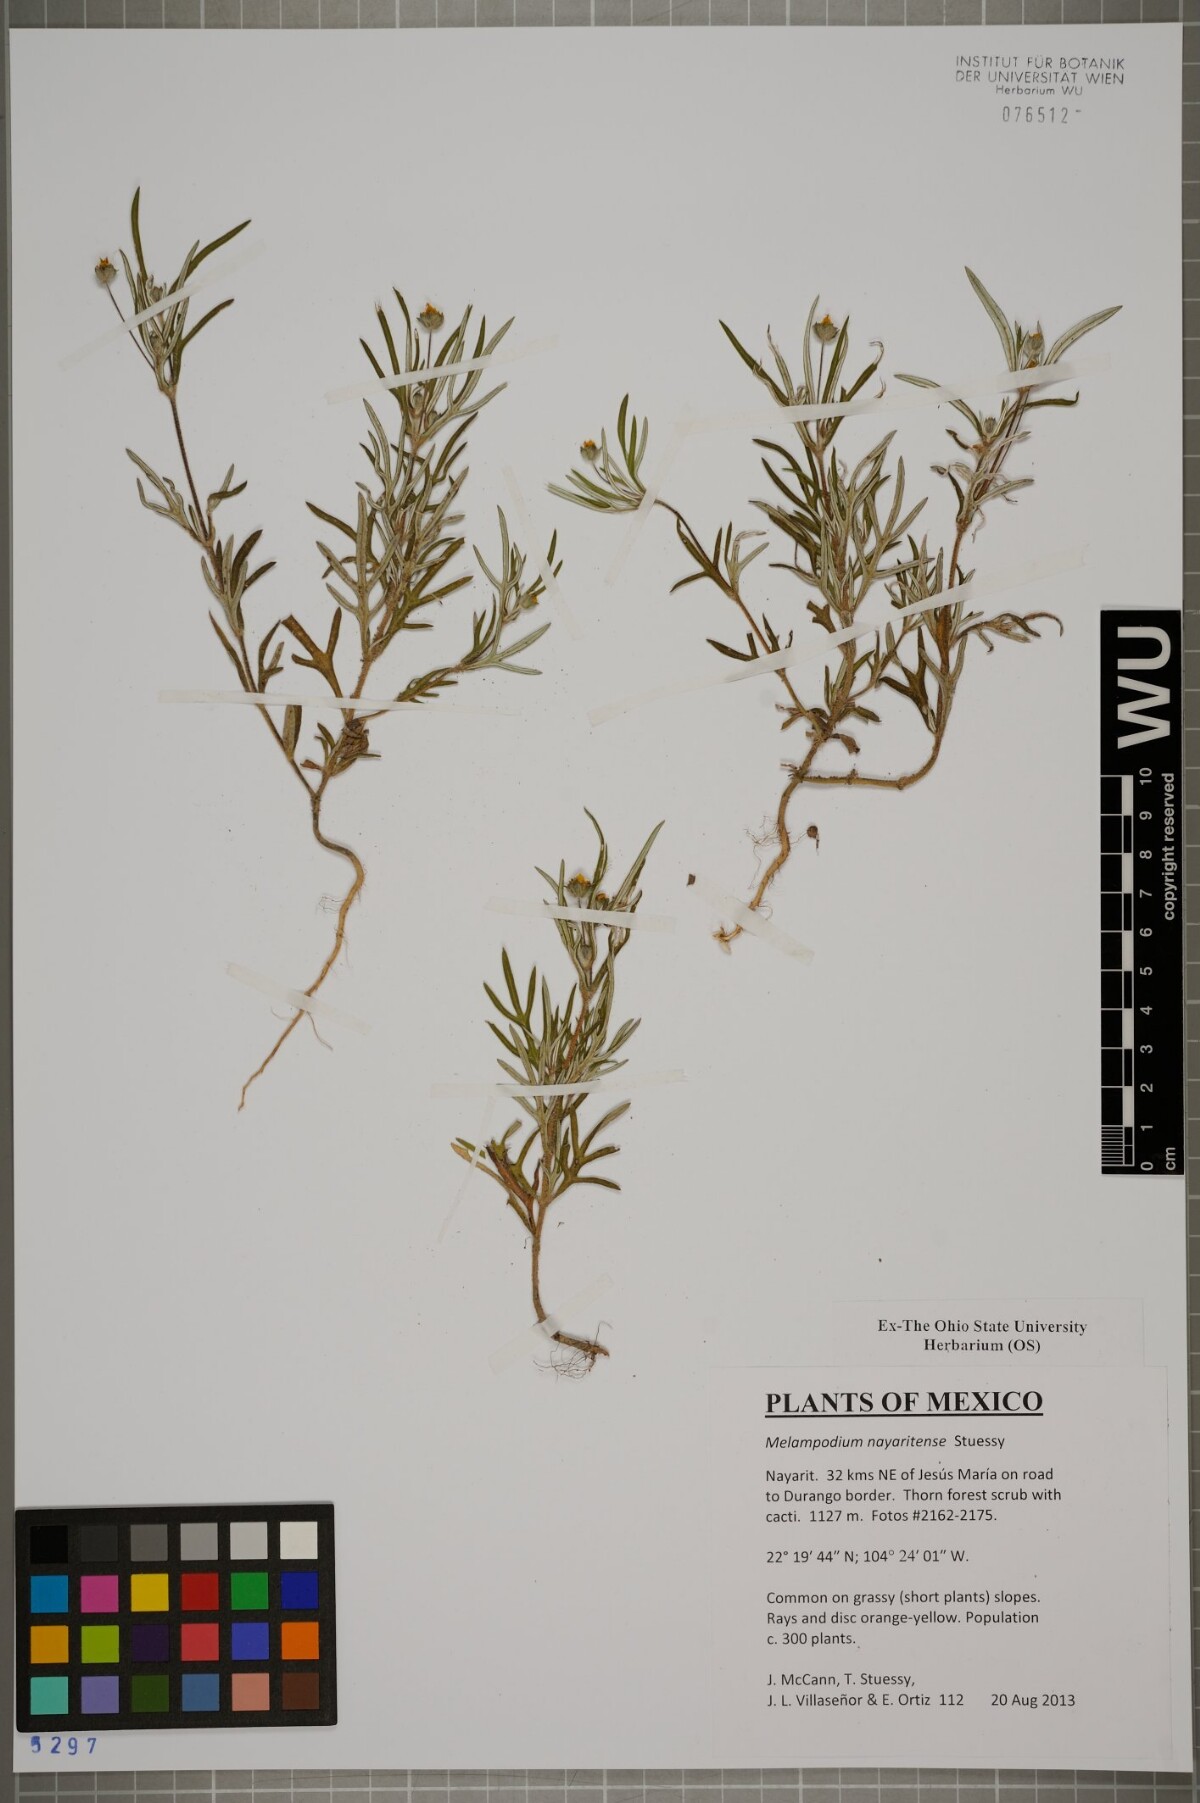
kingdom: Plantae
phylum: Tracheophyta
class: Magnoliopsida
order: Asterales
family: Asteraceae
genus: Melampodium
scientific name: Melampodium nayaritense
